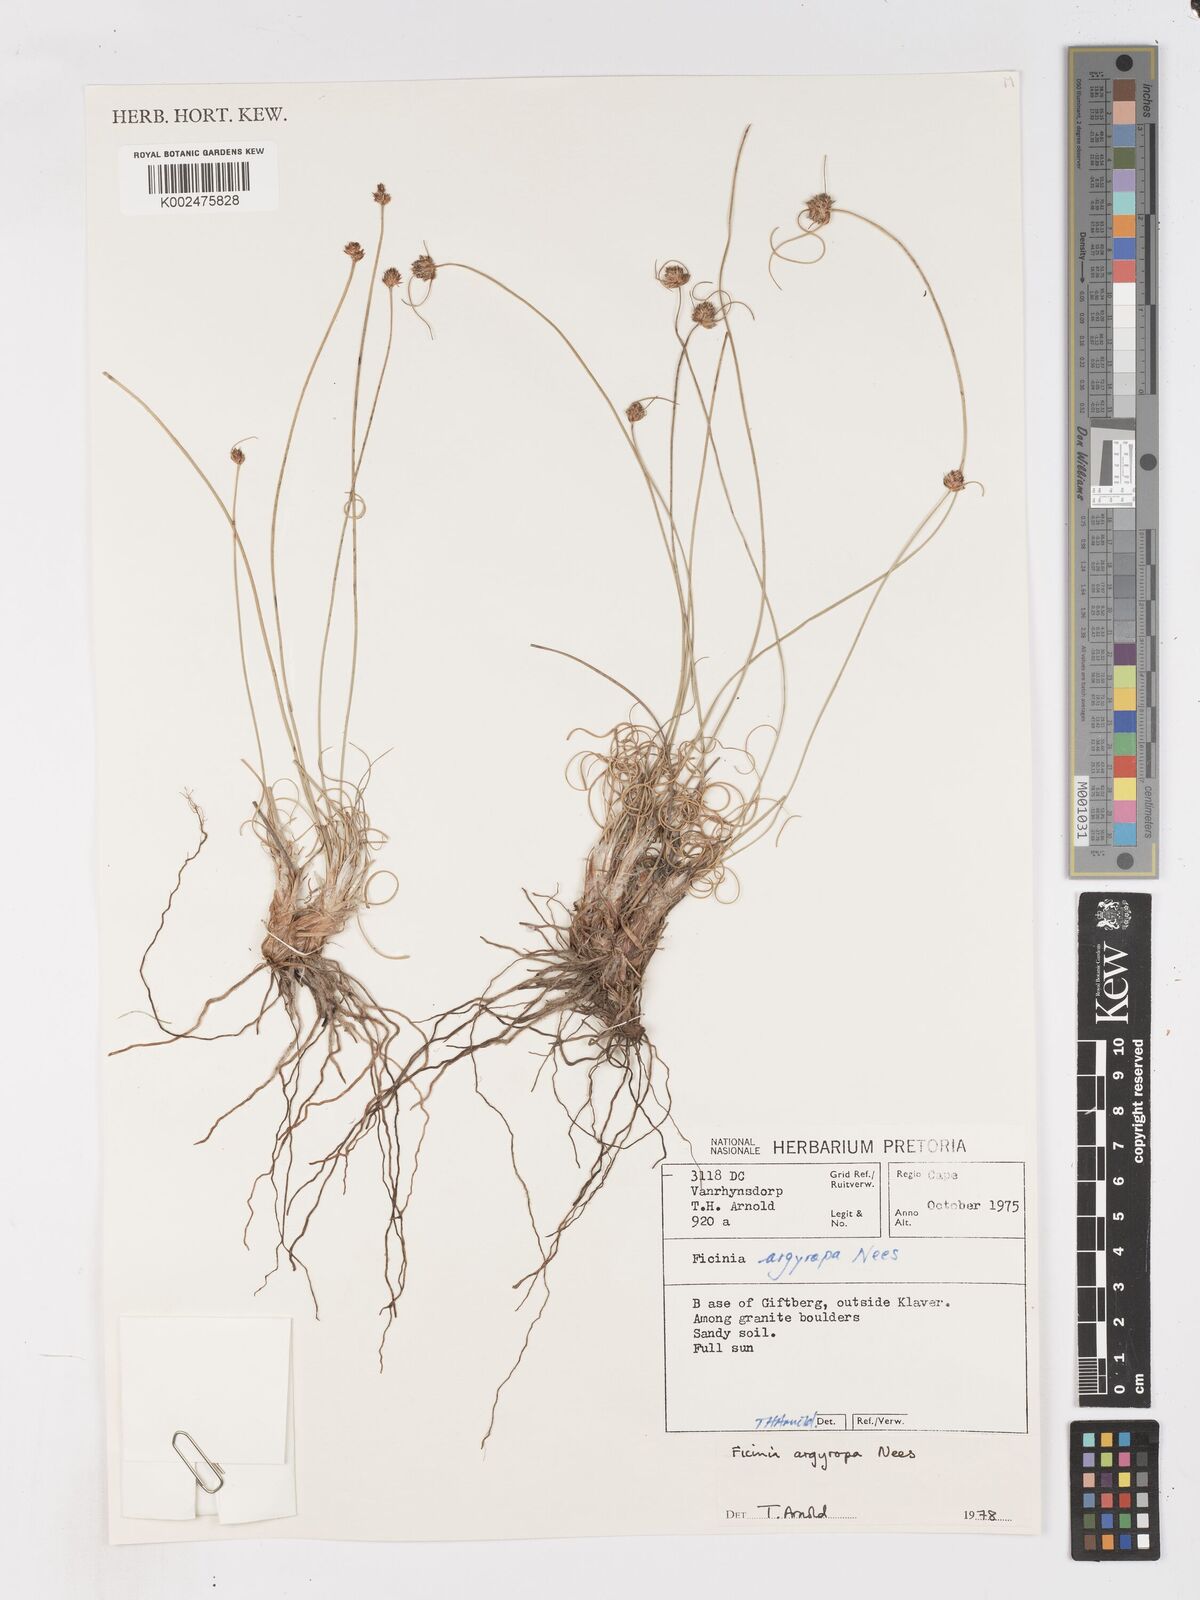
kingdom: Plantae
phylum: Tracheophyta
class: Liliopsida
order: Poales
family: Cyperaceae
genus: Ficinia
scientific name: Ficinia argyropus
